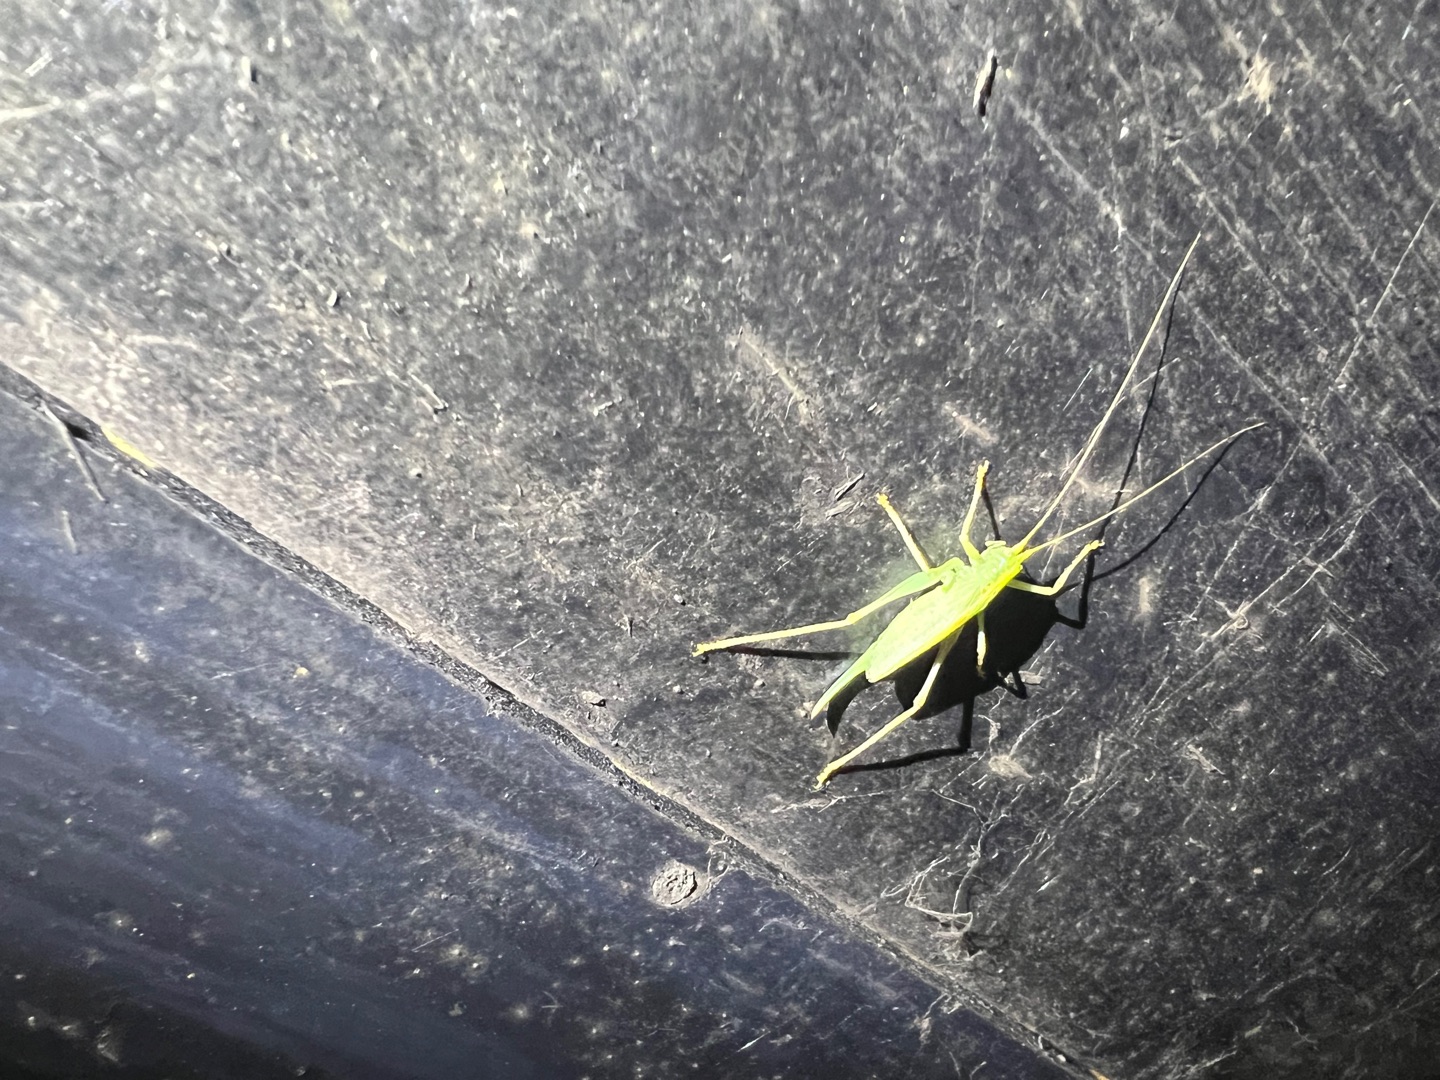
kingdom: Animalia
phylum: Arthropoda
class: Insecta
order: Orthoptera
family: Tettigoniidae
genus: Meconema
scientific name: Meconema thalassinum
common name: Egegræshoppe
